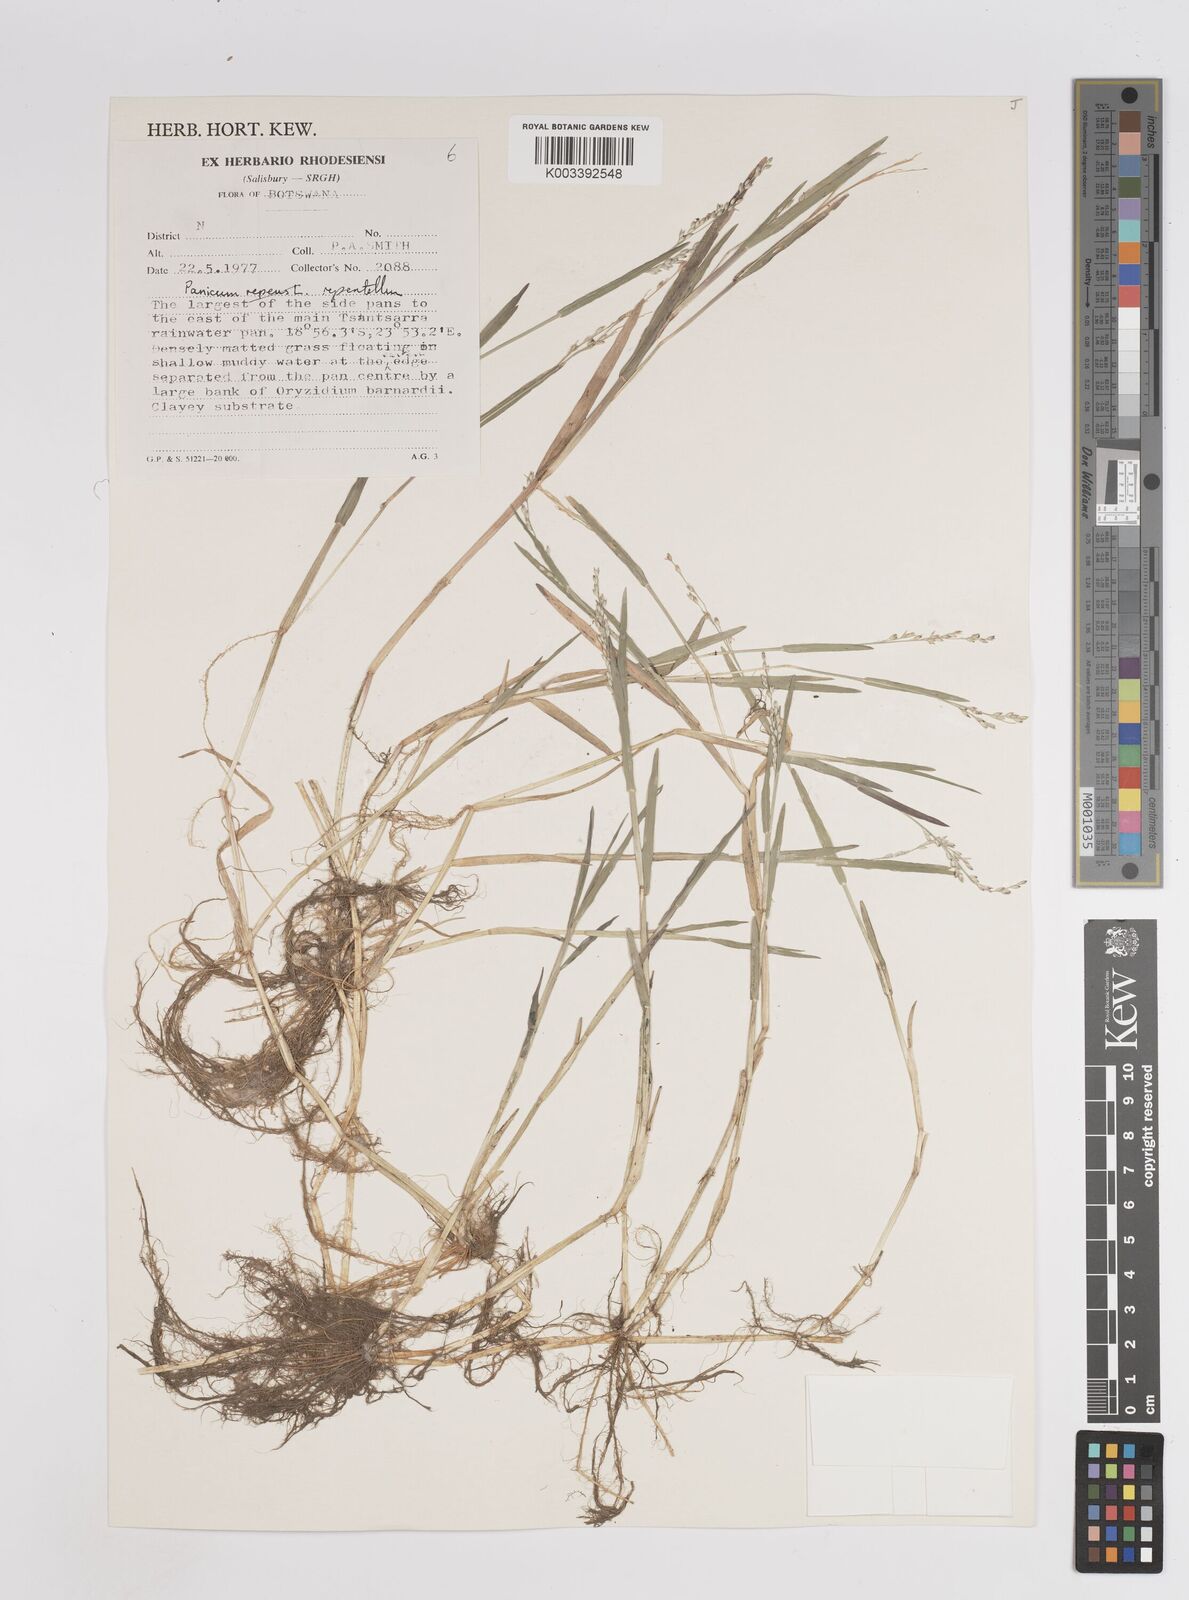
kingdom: Plantae
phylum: Tracheophyta
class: Liliopsida
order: Poales
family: Poaceae
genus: Panicum
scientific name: Panicum hygrocharis
